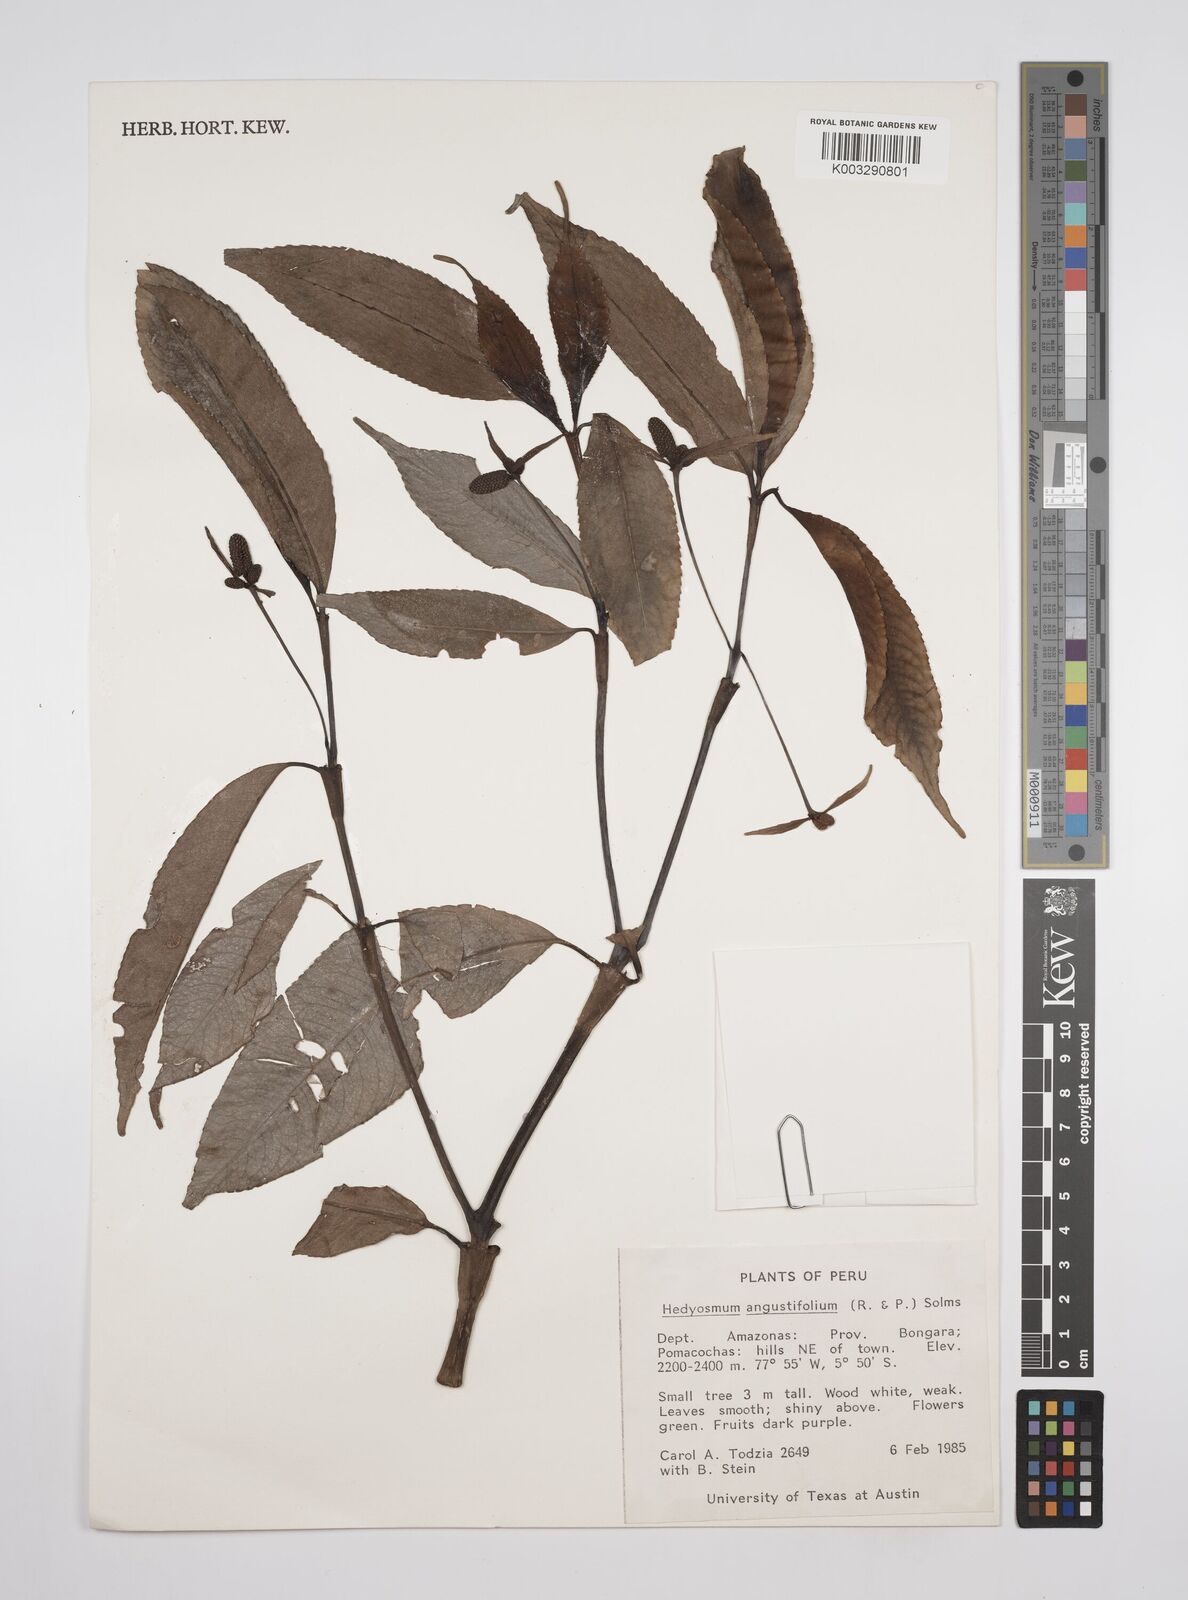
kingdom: Plantae
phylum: Tracheophyta
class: Magnoliopsida
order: Chloranthales
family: Chloranthaceae
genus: Hedyosmum
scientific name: Hedyosmum angustifolium
